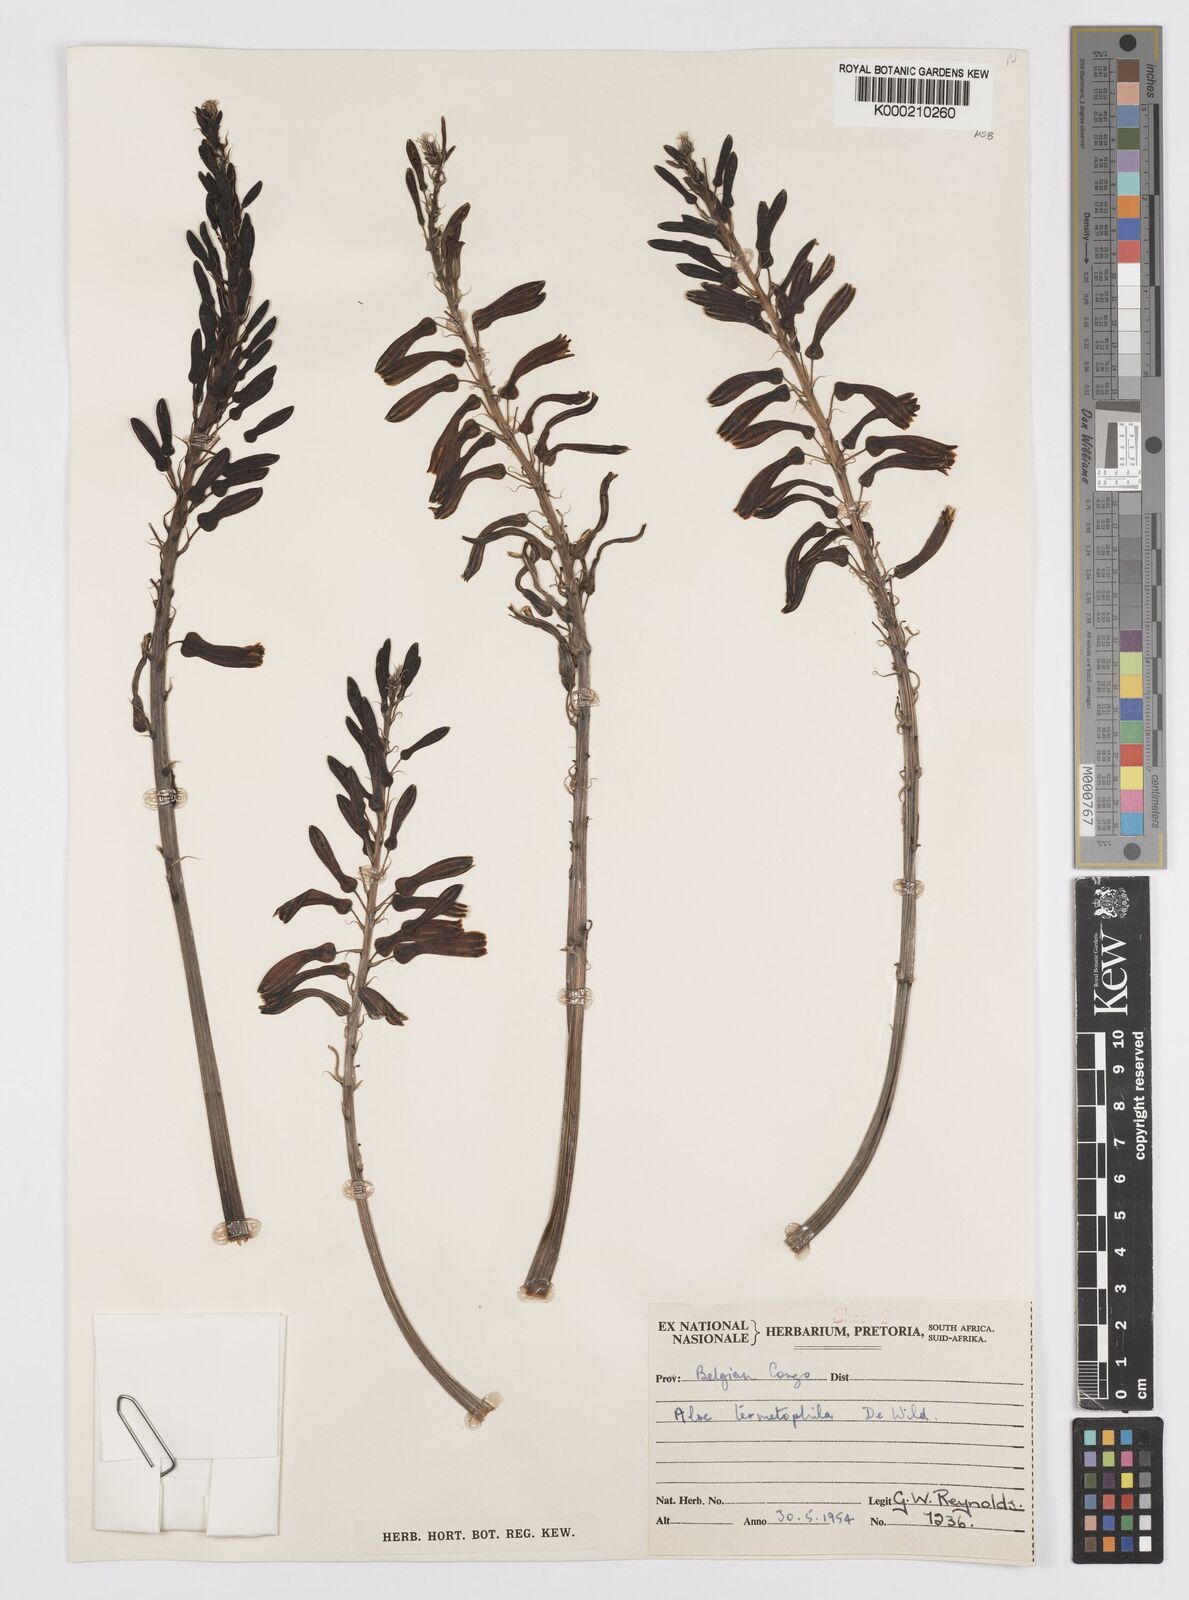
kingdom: Plantae
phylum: Tracheophyta
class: Liliopsida
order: Asparagales
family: Asphodelaceae
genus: Aloe
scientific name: Aloe greatheadii
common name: Greathead's aloe
